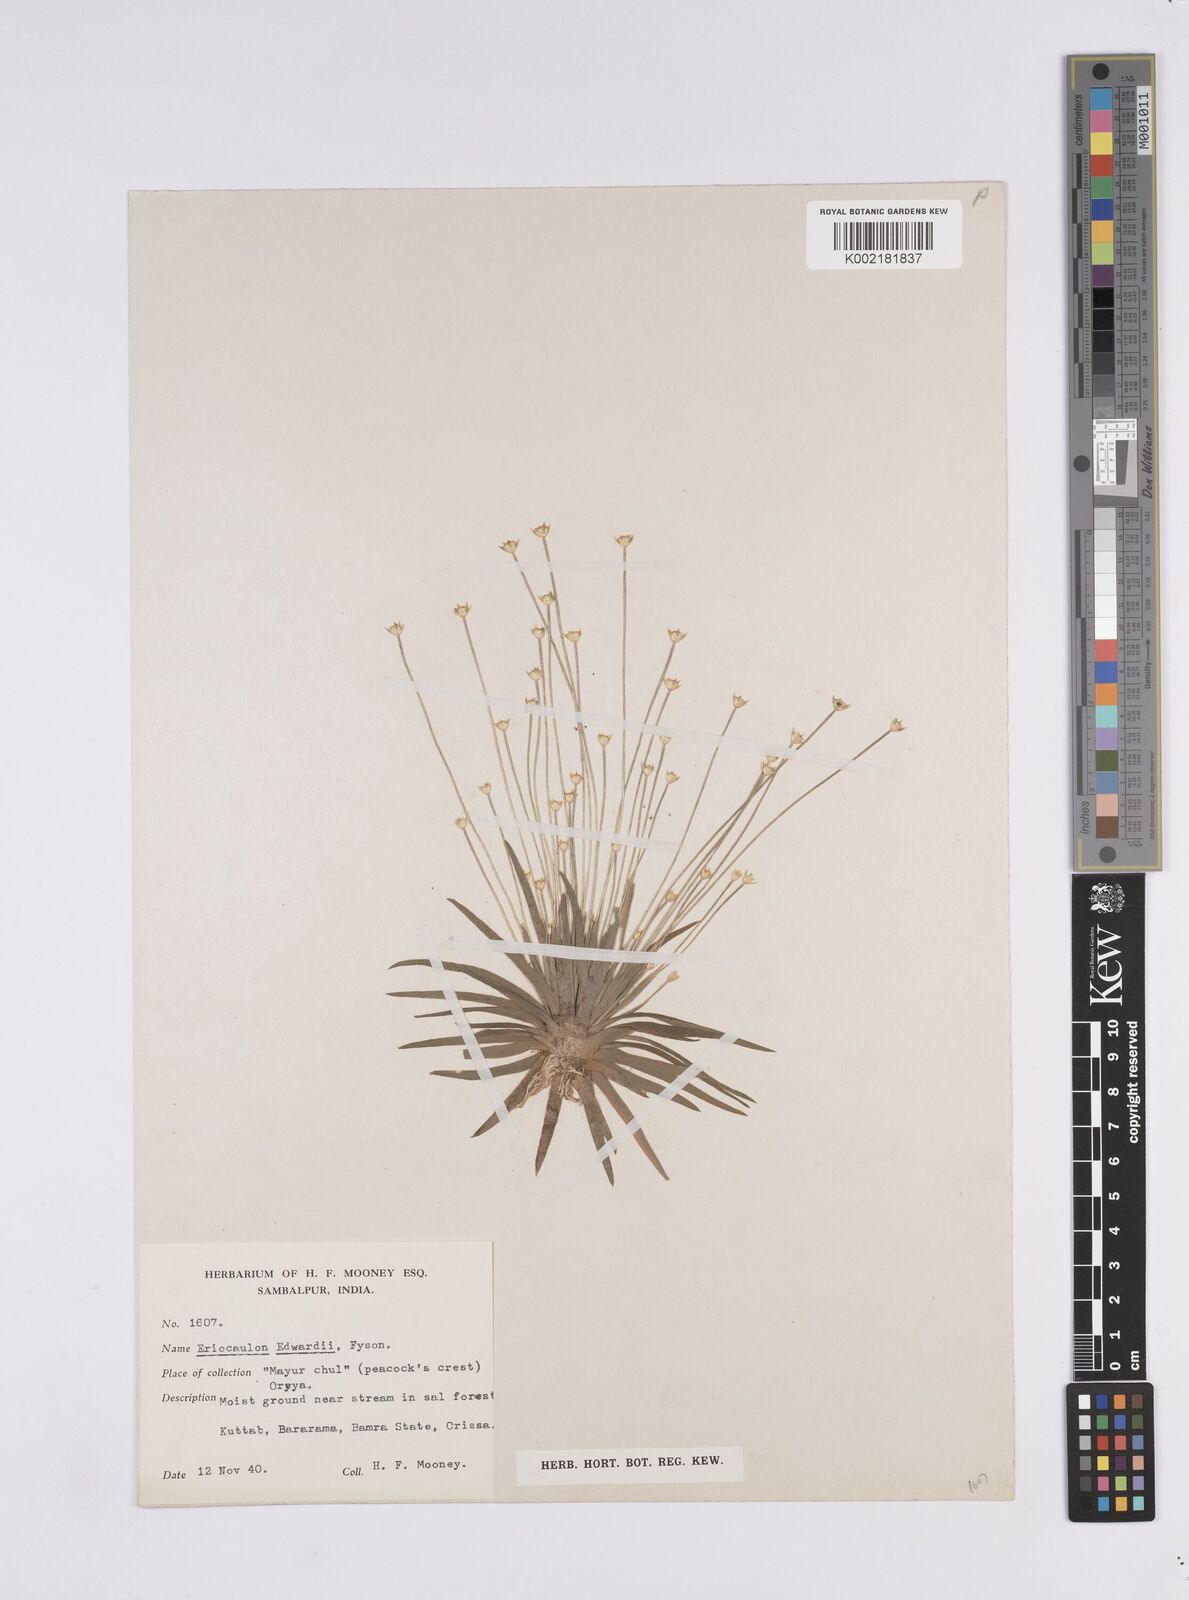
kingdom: Plantae
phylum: Tracheophyta
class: Liliopsida
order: Poales
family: Eriocaulaceae
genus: Eriocaulon
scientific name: Eriocaulon edwardii
